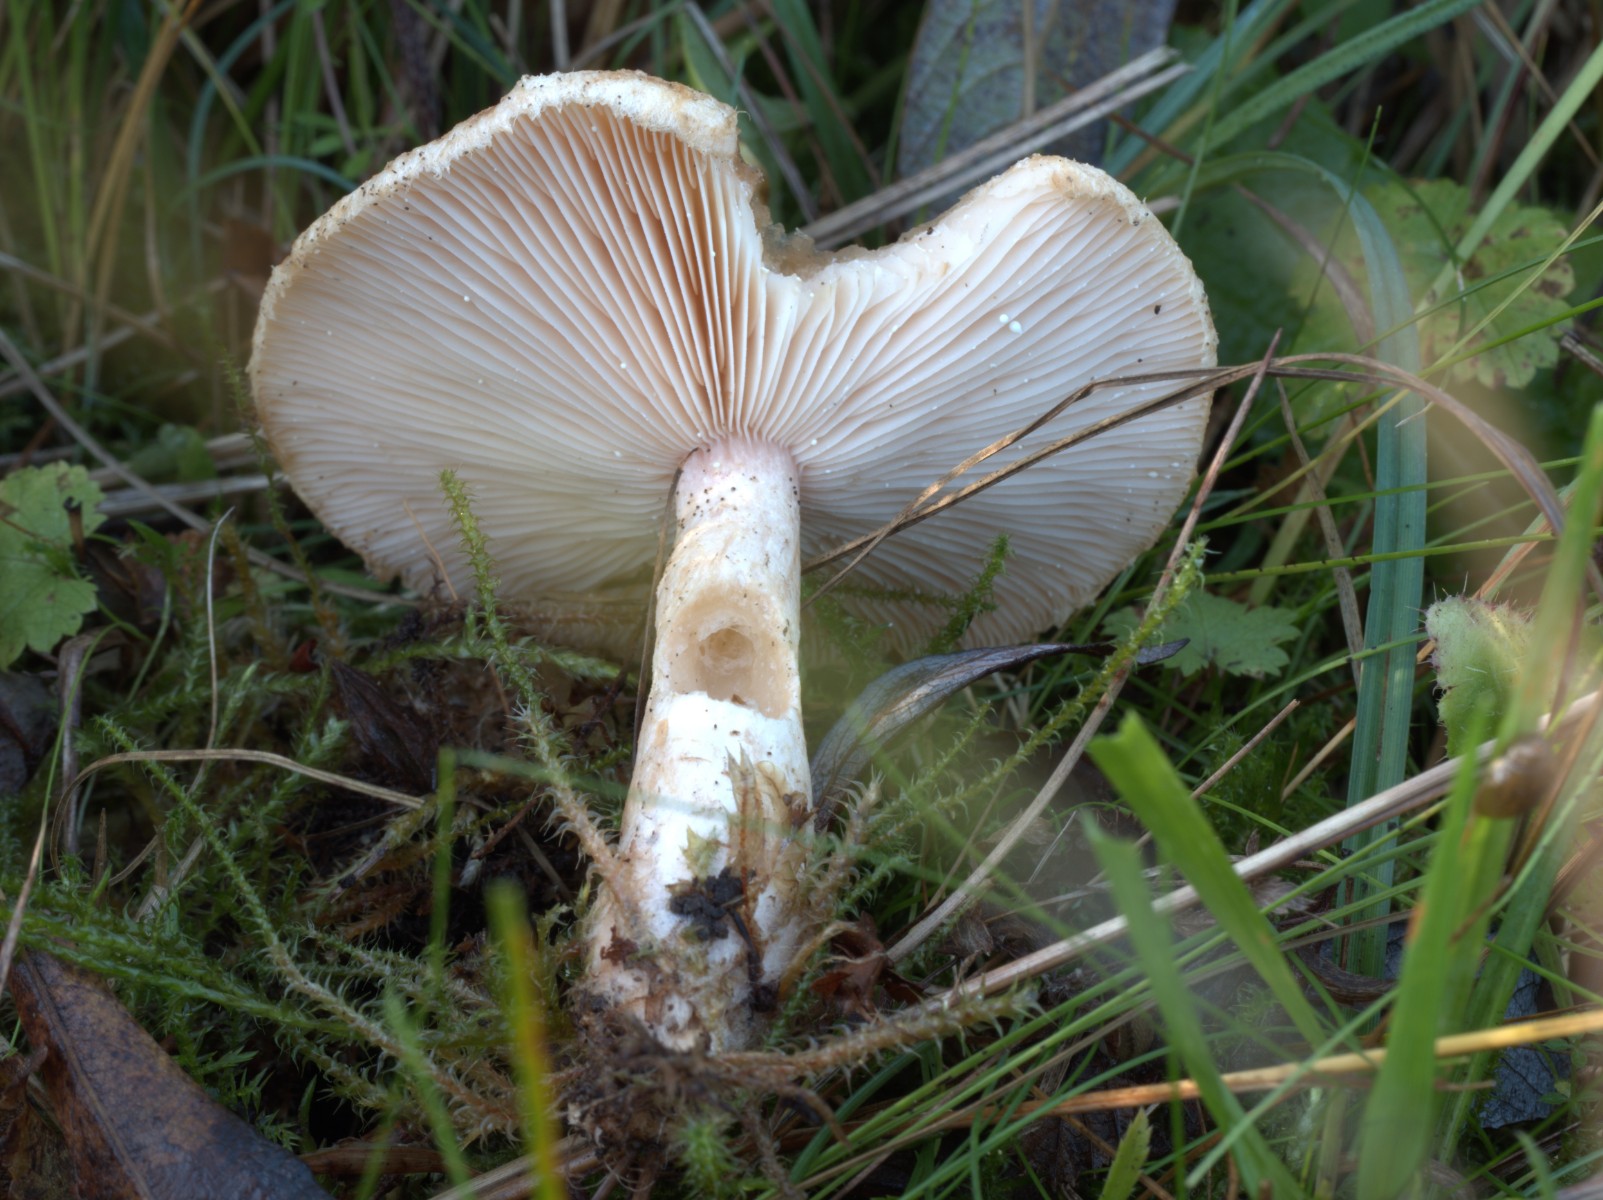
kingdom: Fungi
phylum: Basidiomycota
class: Agaricomycetes
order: Russulales
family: Russulaceae
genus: Lactarius
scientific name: Lactarius pubescens
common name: dunet mælkehat
